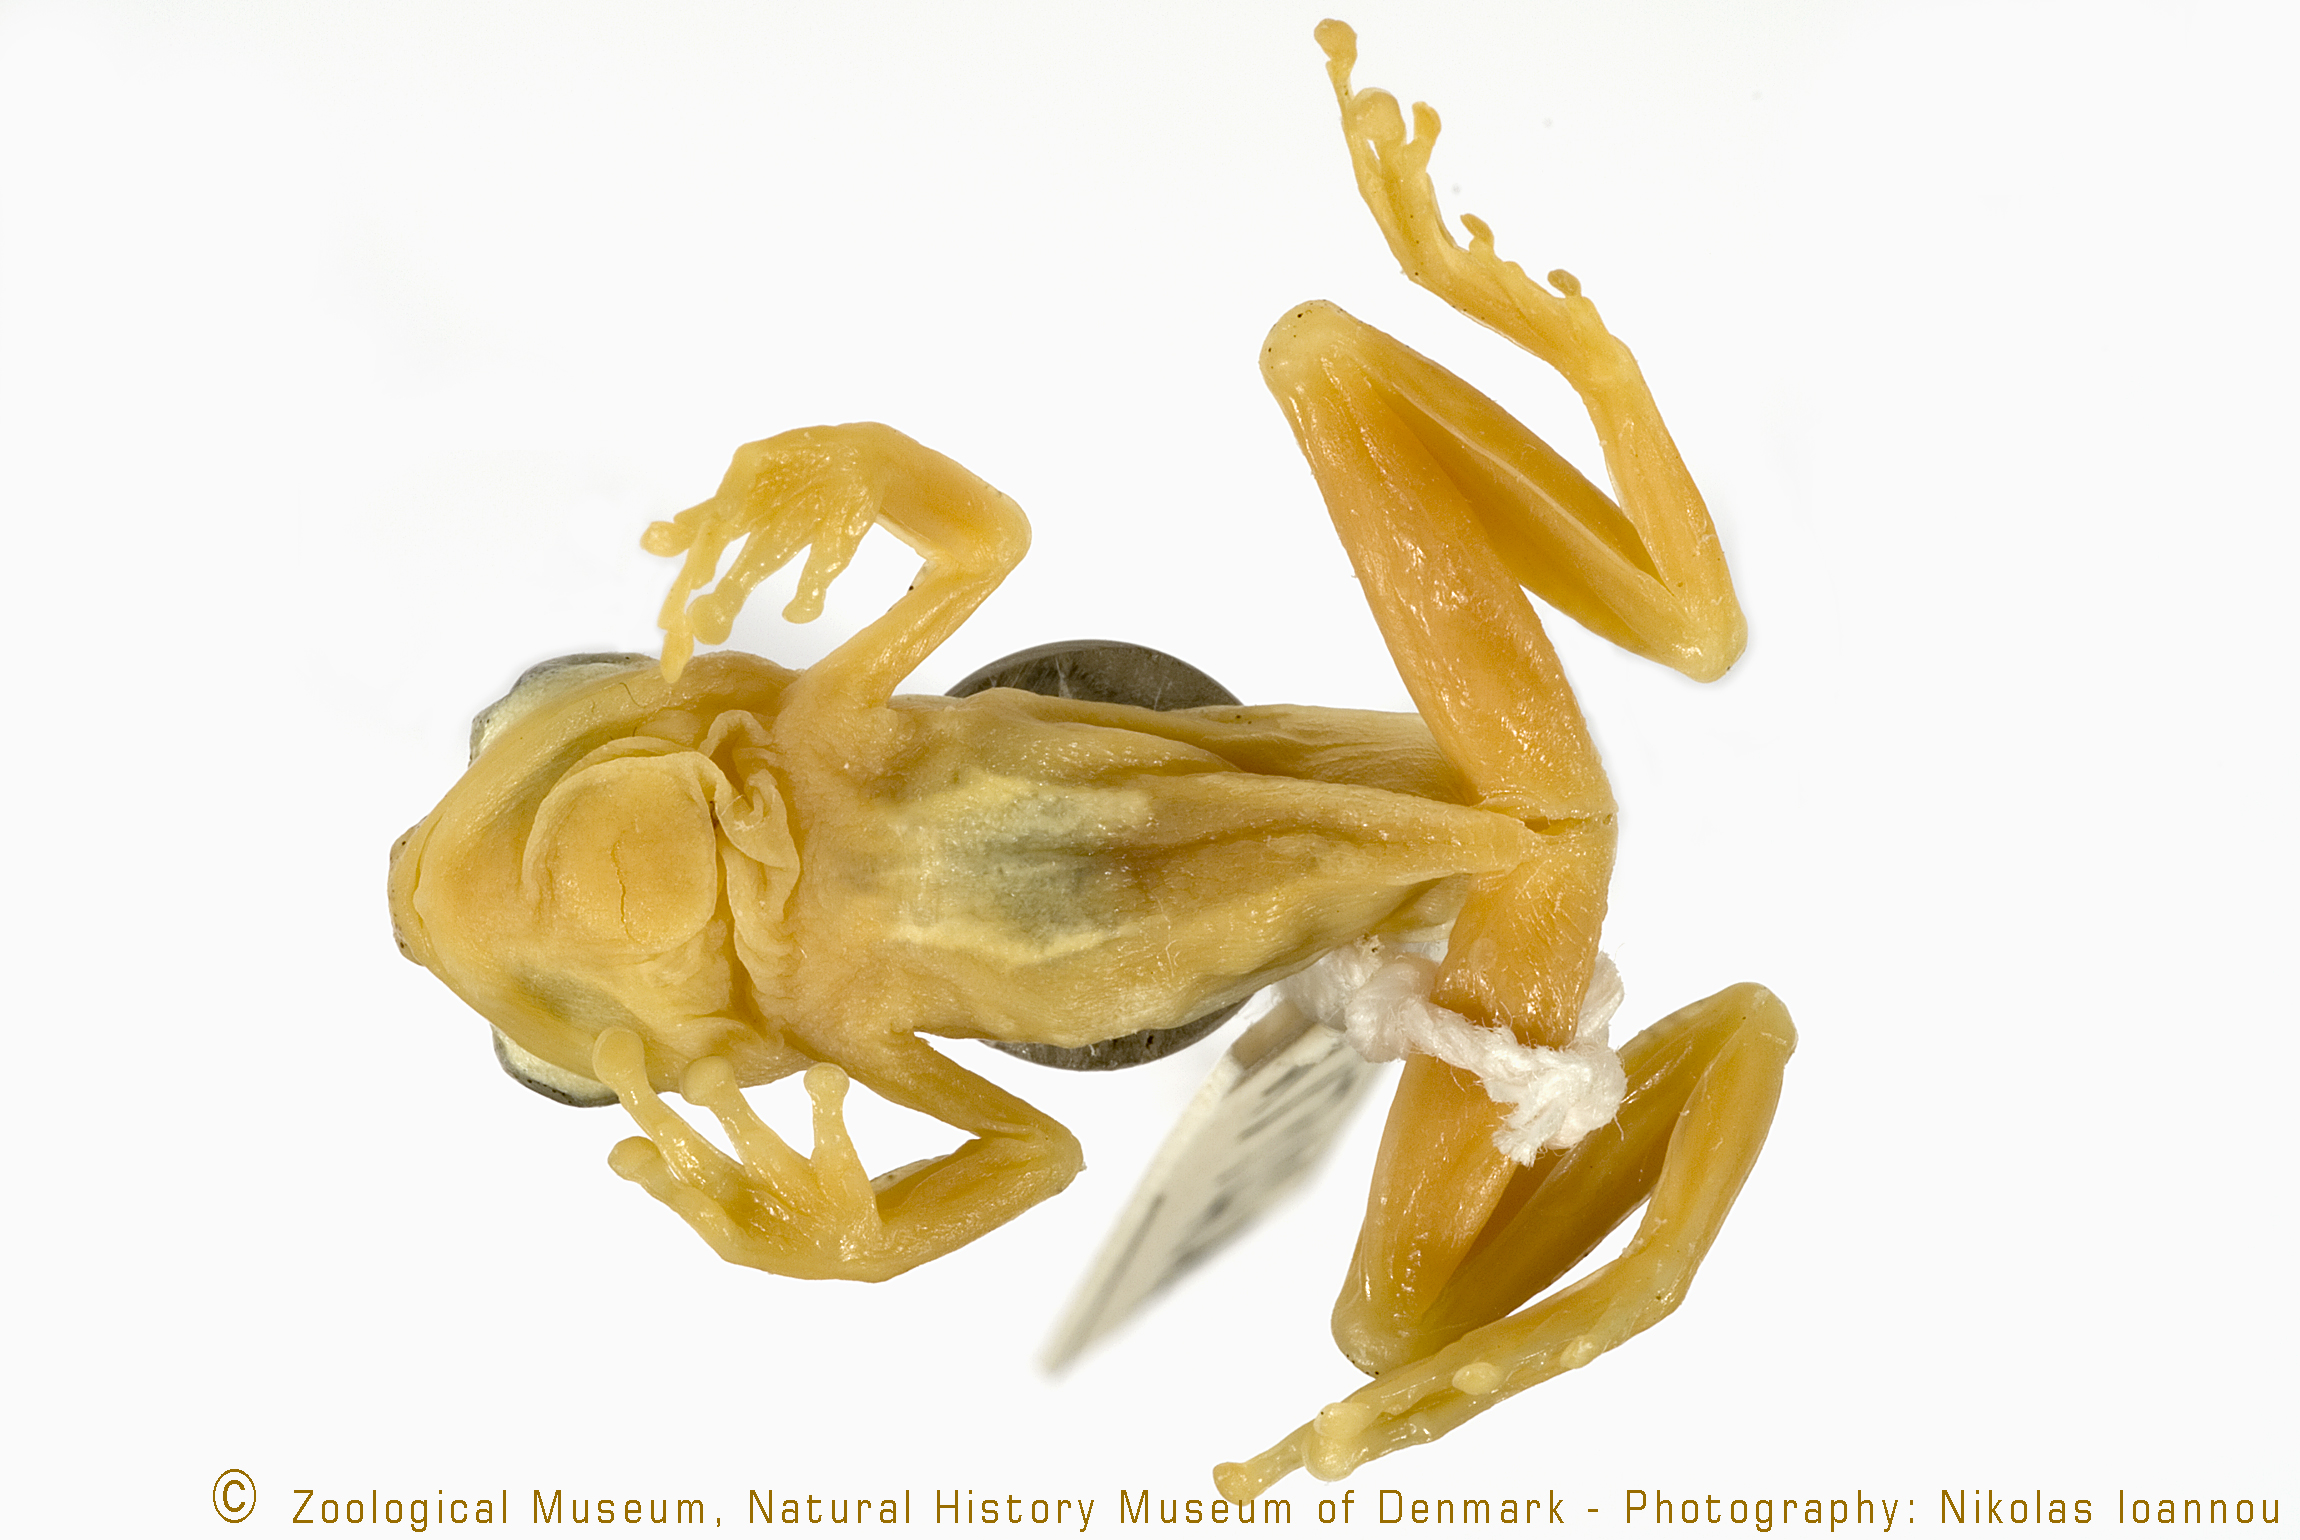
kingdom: Animalia
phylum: Chordata
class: Amphibia
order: Anura
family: Hyperoliidae
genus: Afrixalus
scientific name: Afrixalus uluguruensis
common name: Uluguru banana frog
